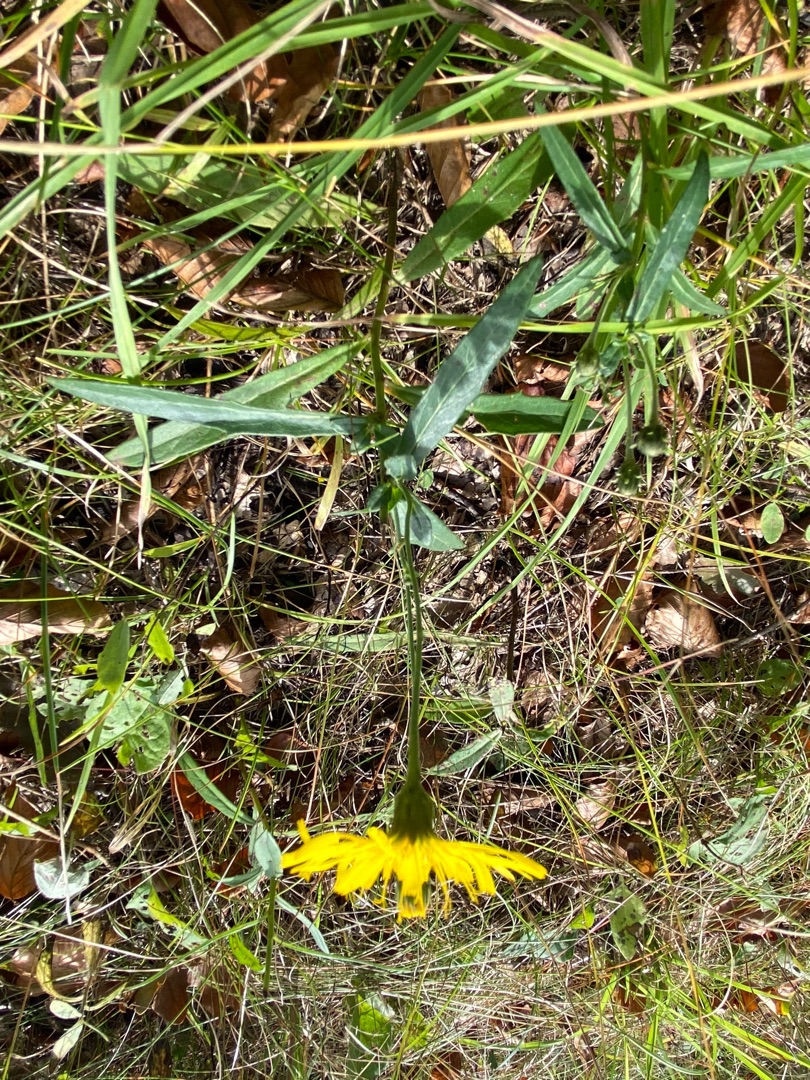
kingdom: Plantae
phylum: Tracheophyta
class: Magnoliopsida
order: Asterales
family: Asteraceae
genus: Hieracium
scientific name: Hieracium umbellatum
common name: Smalbladet høgeurt
